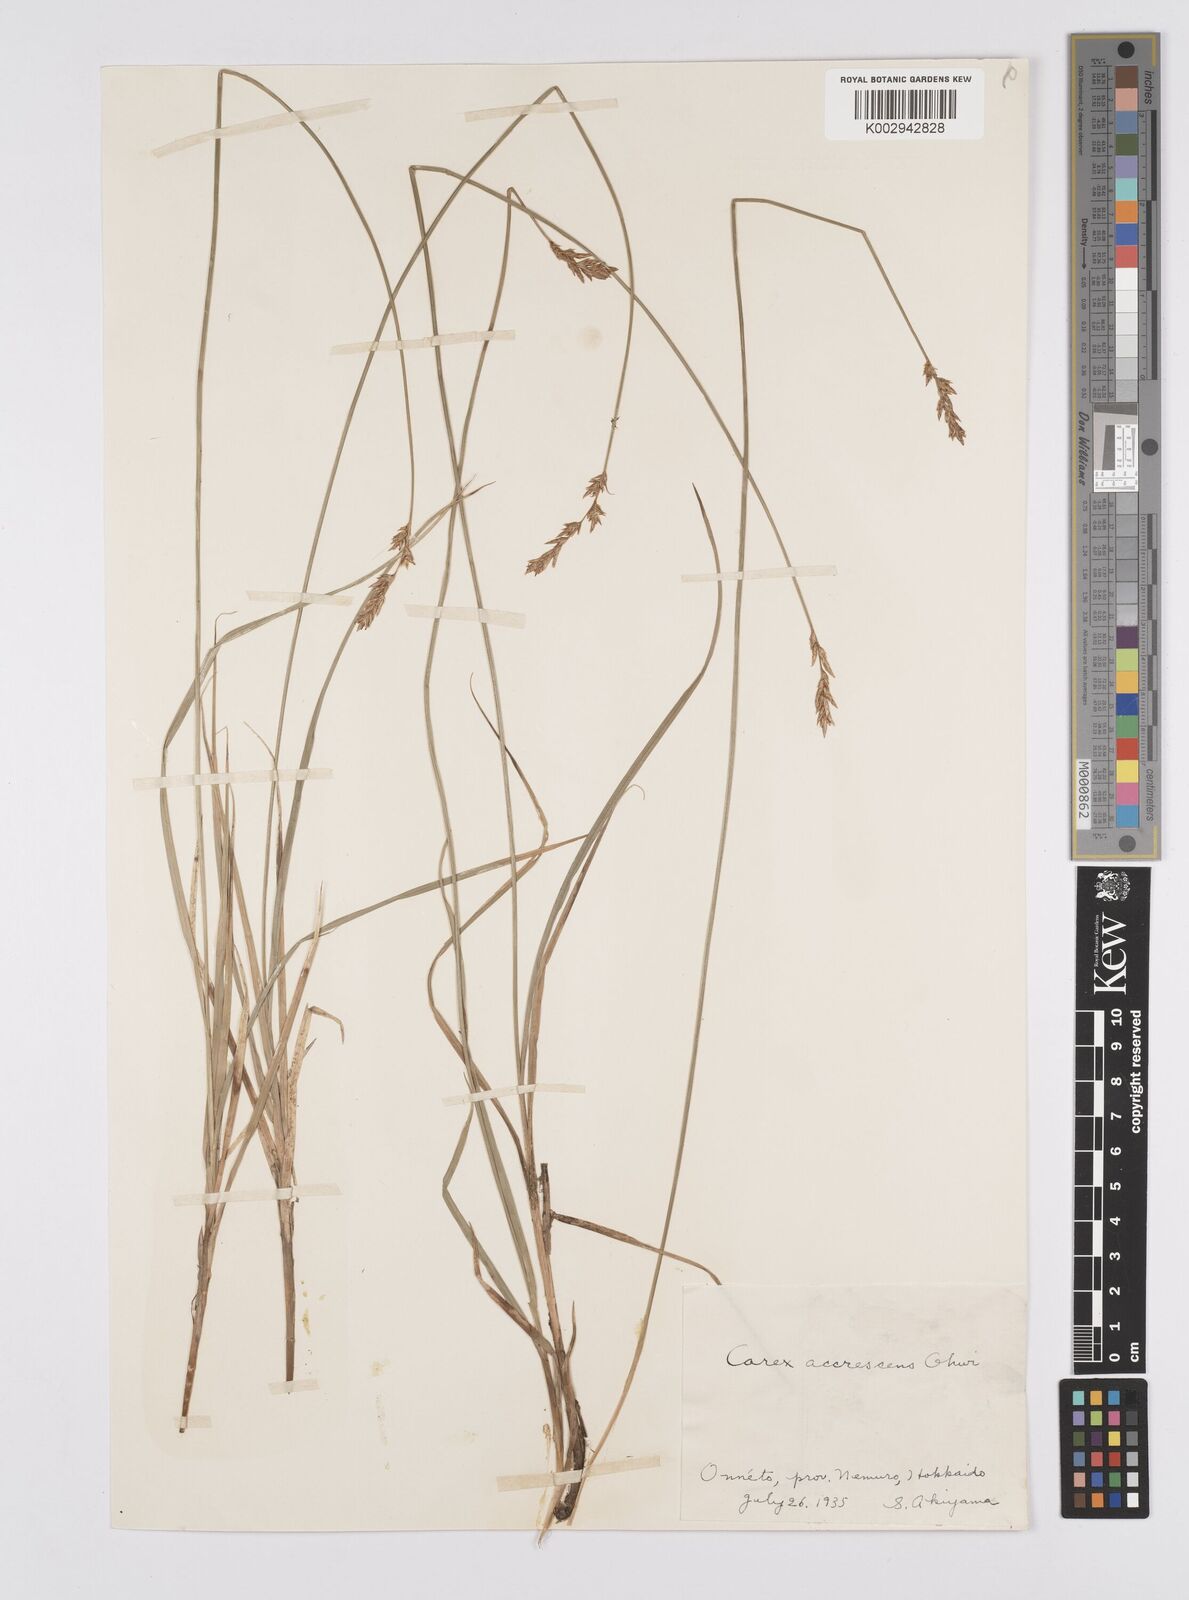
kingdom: Plantae
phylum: Tracheophyta
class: Liliopsida
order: Poales
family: Cyperaceae
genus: Carex
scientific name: Carex accrescens
